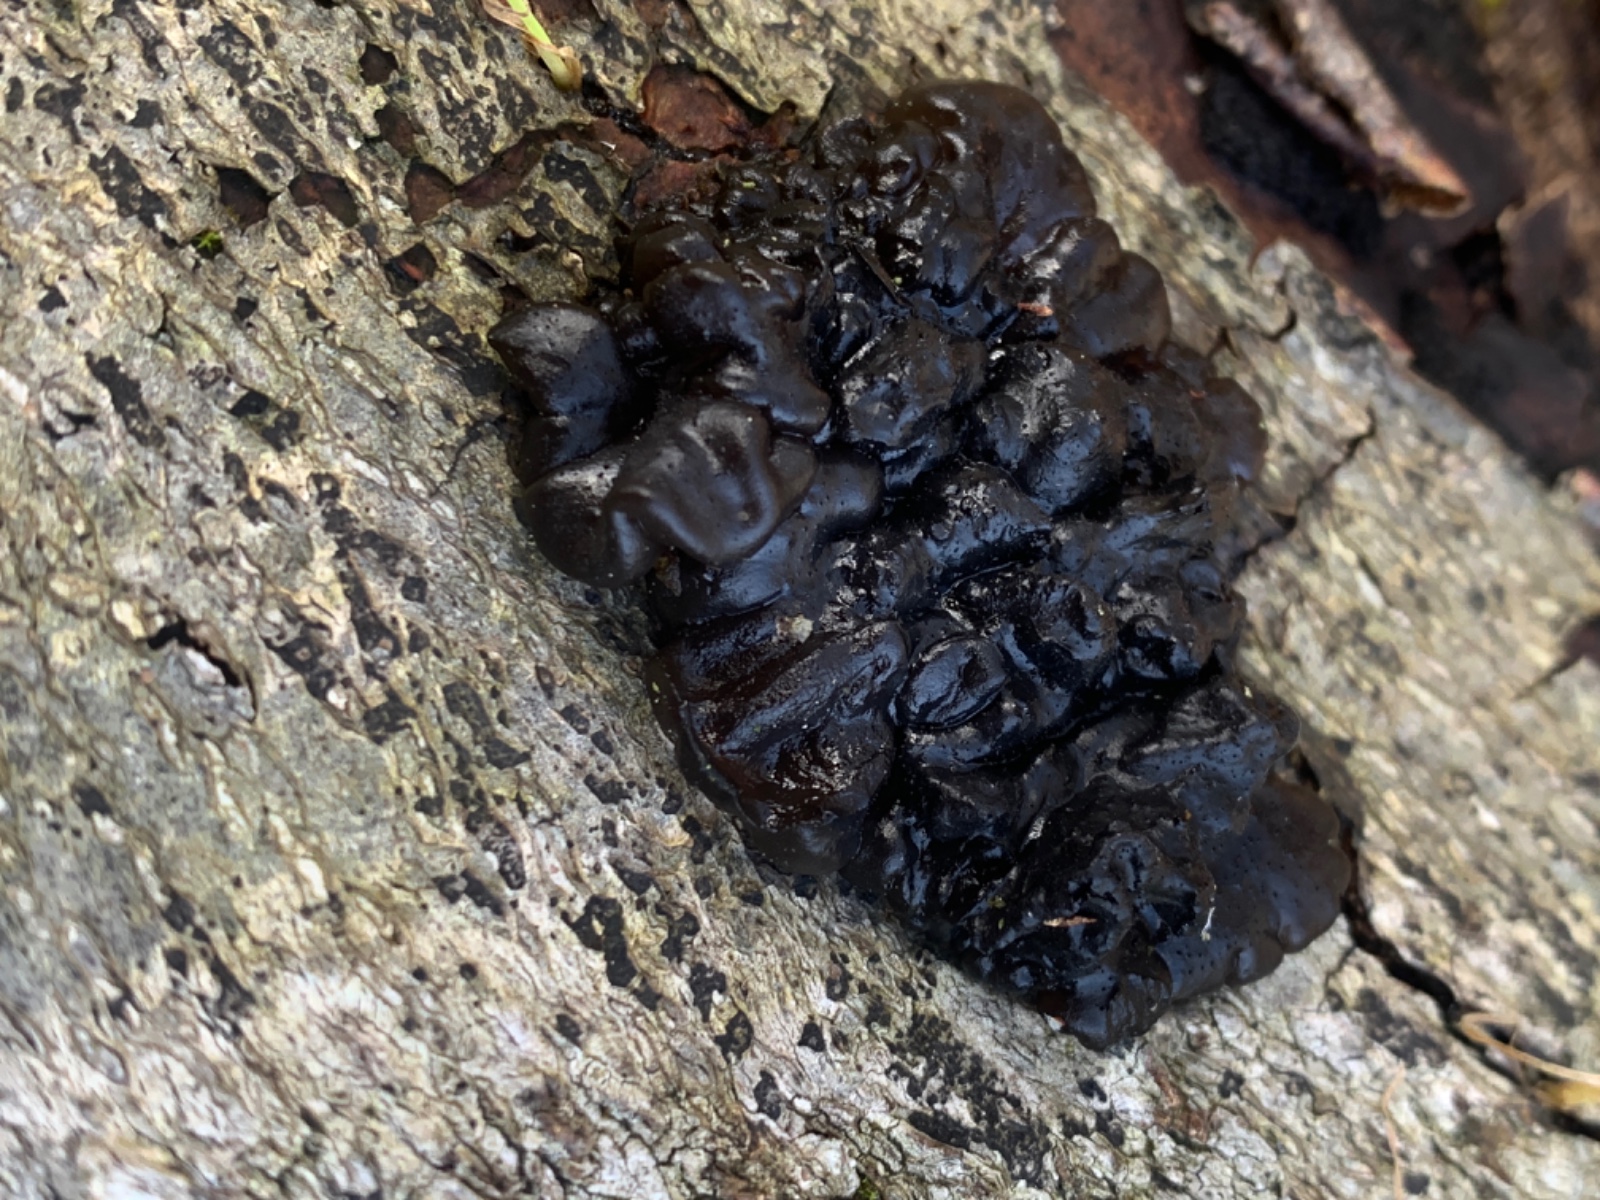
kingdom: Fungi
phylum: Basidiomycota
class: Agaricomycetes
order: Auriculariales
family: Auriculariaceae
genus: Exidia
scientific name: Exidia nigricans
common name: almindelig bævretop
